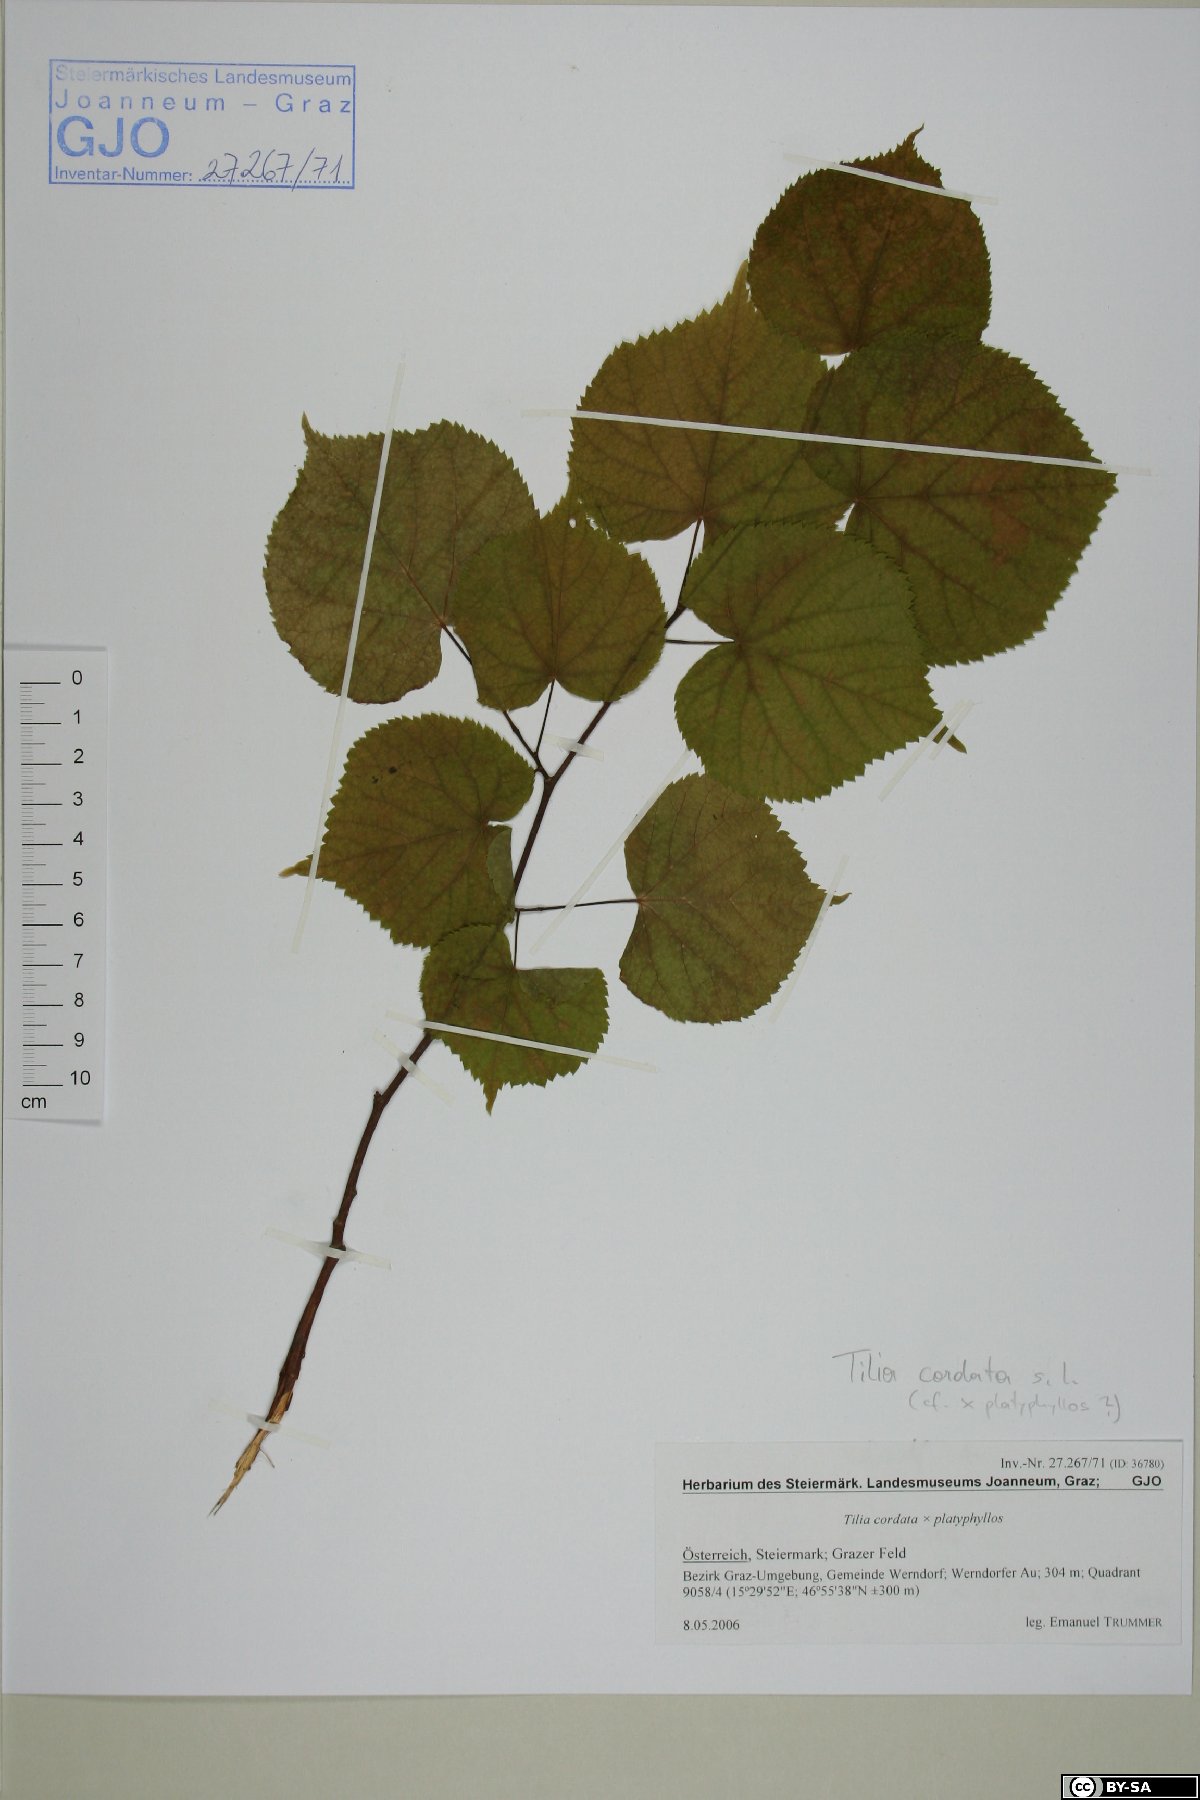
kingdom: Plantae
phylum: Tracheophyta
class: Magnoliopsida
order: Malvales
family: Tiliaceae
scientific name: Tiliaceae
